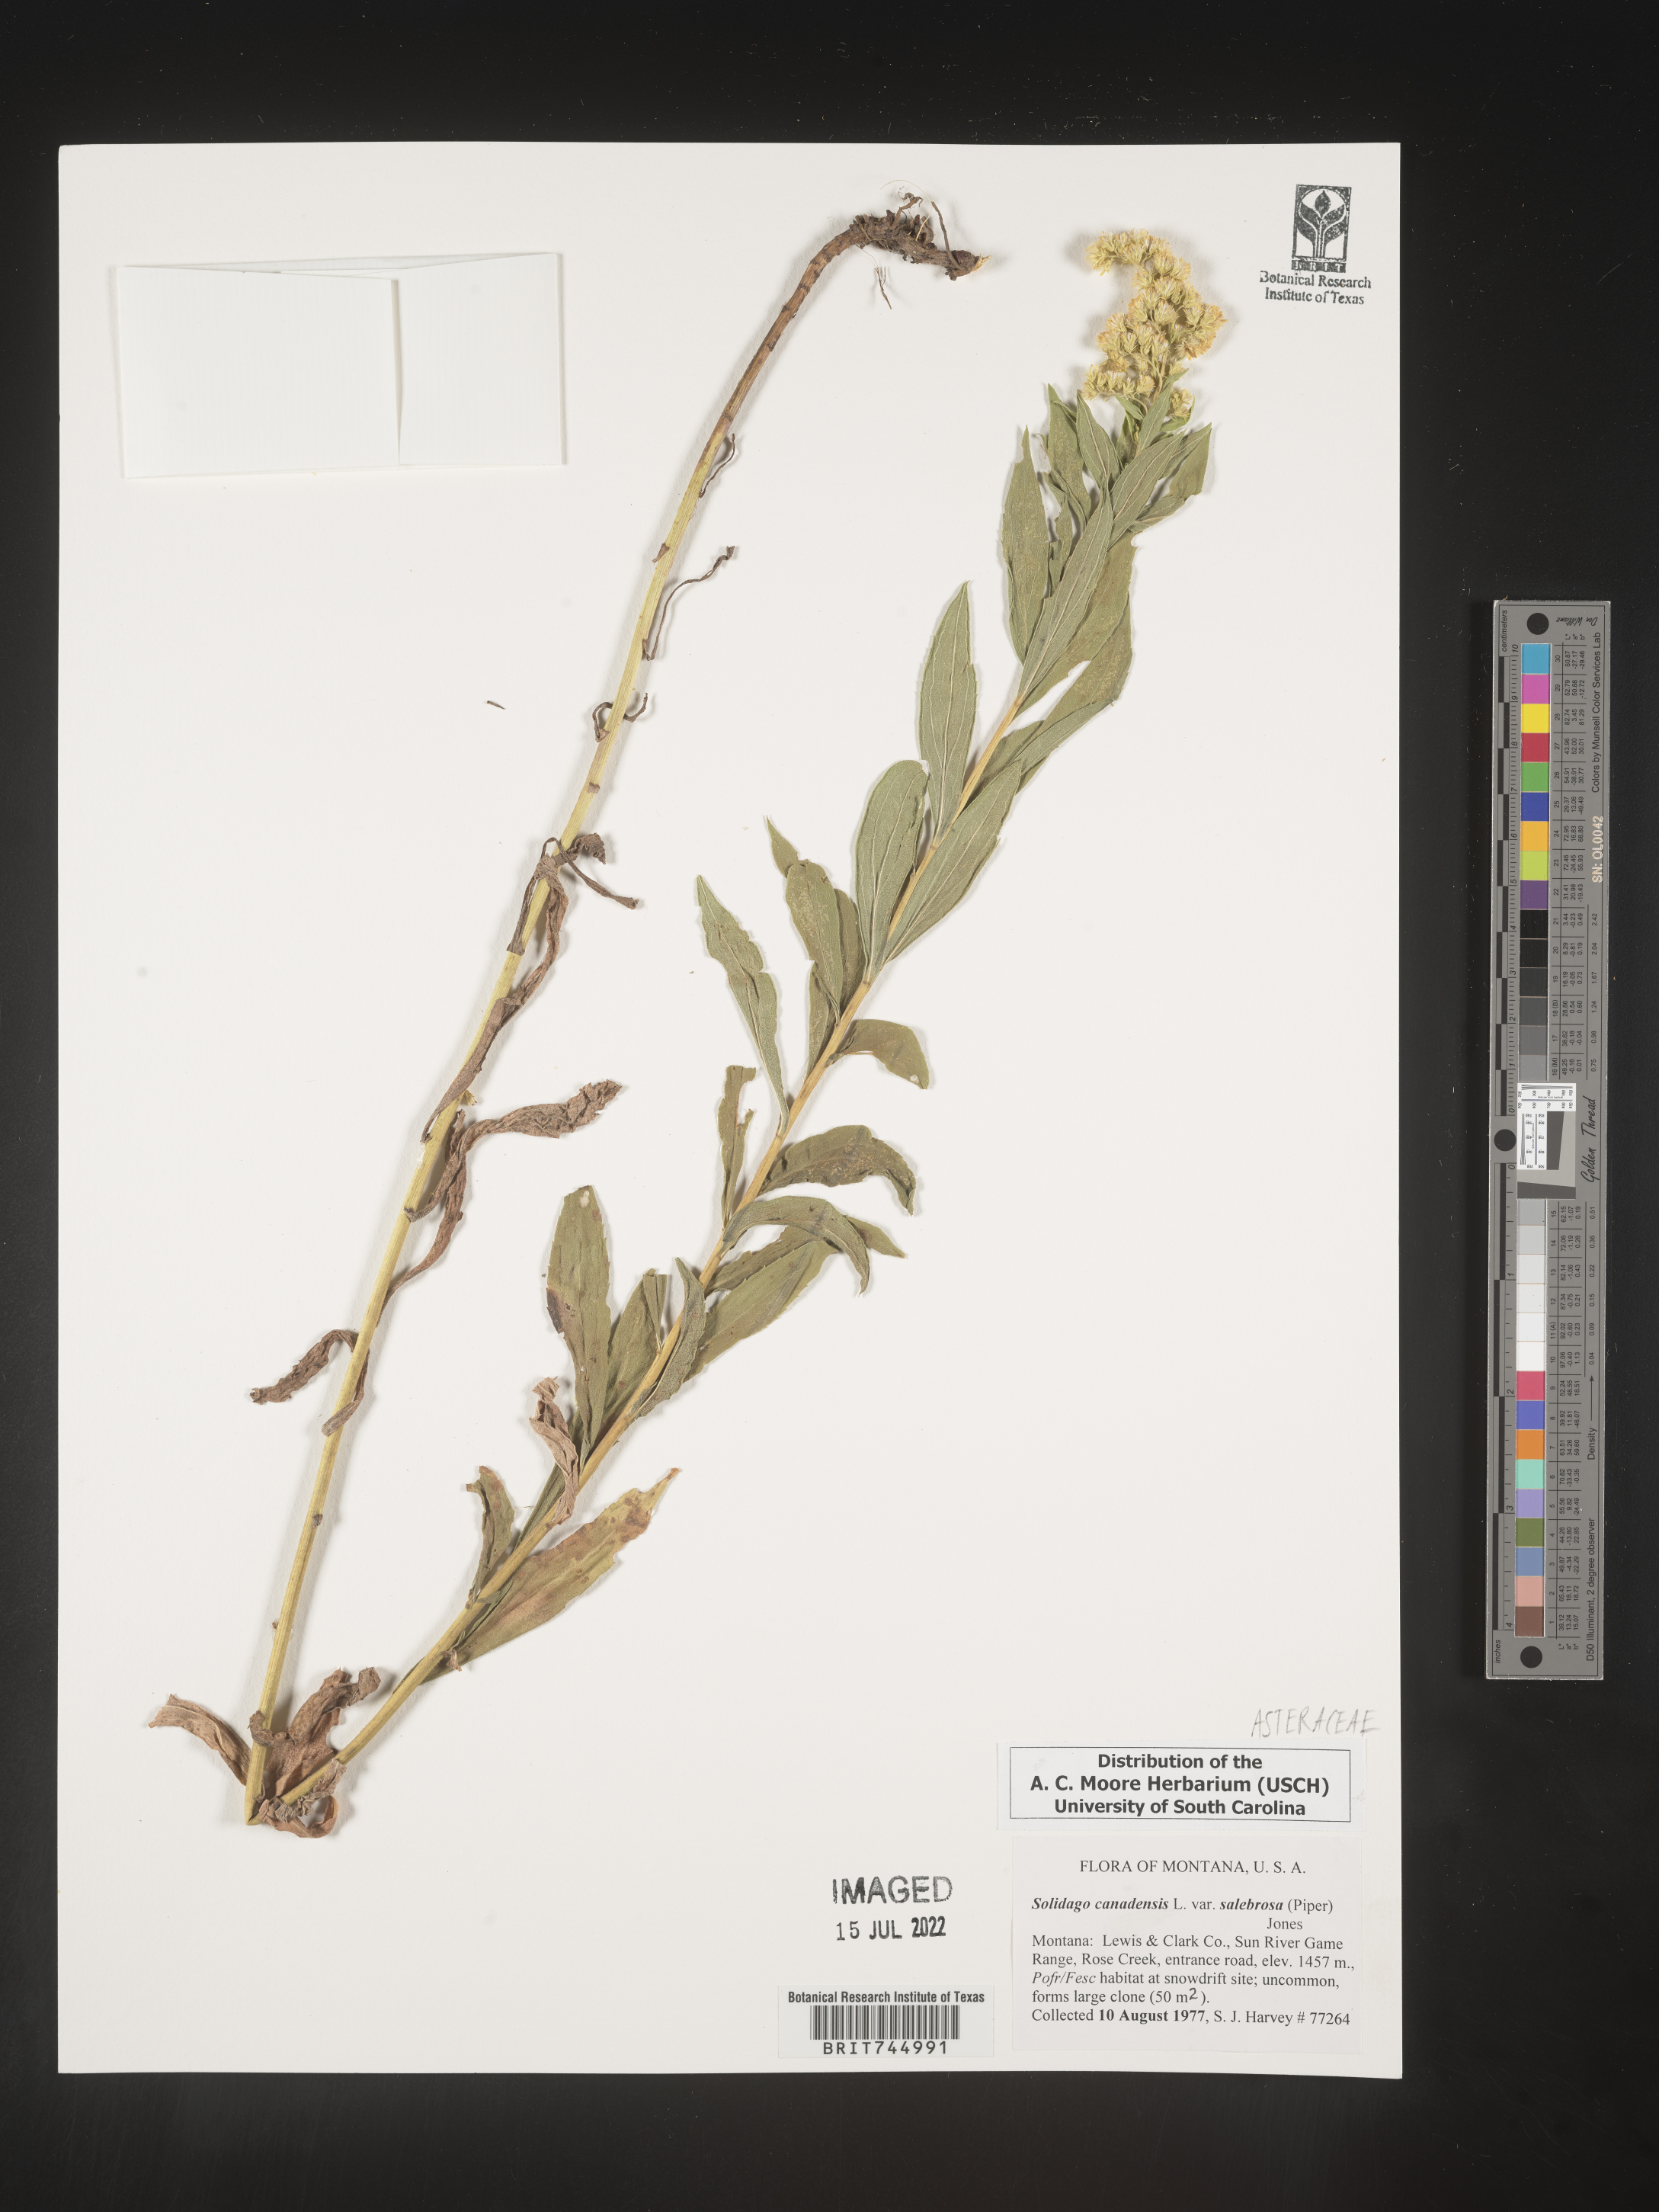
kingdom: Plantae
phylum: Tracheophyta
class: Magnoliopsida
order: Asterales
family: Asteraceae
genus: Solidago
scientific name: Solidago lepida
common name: Western canada goldenrod
